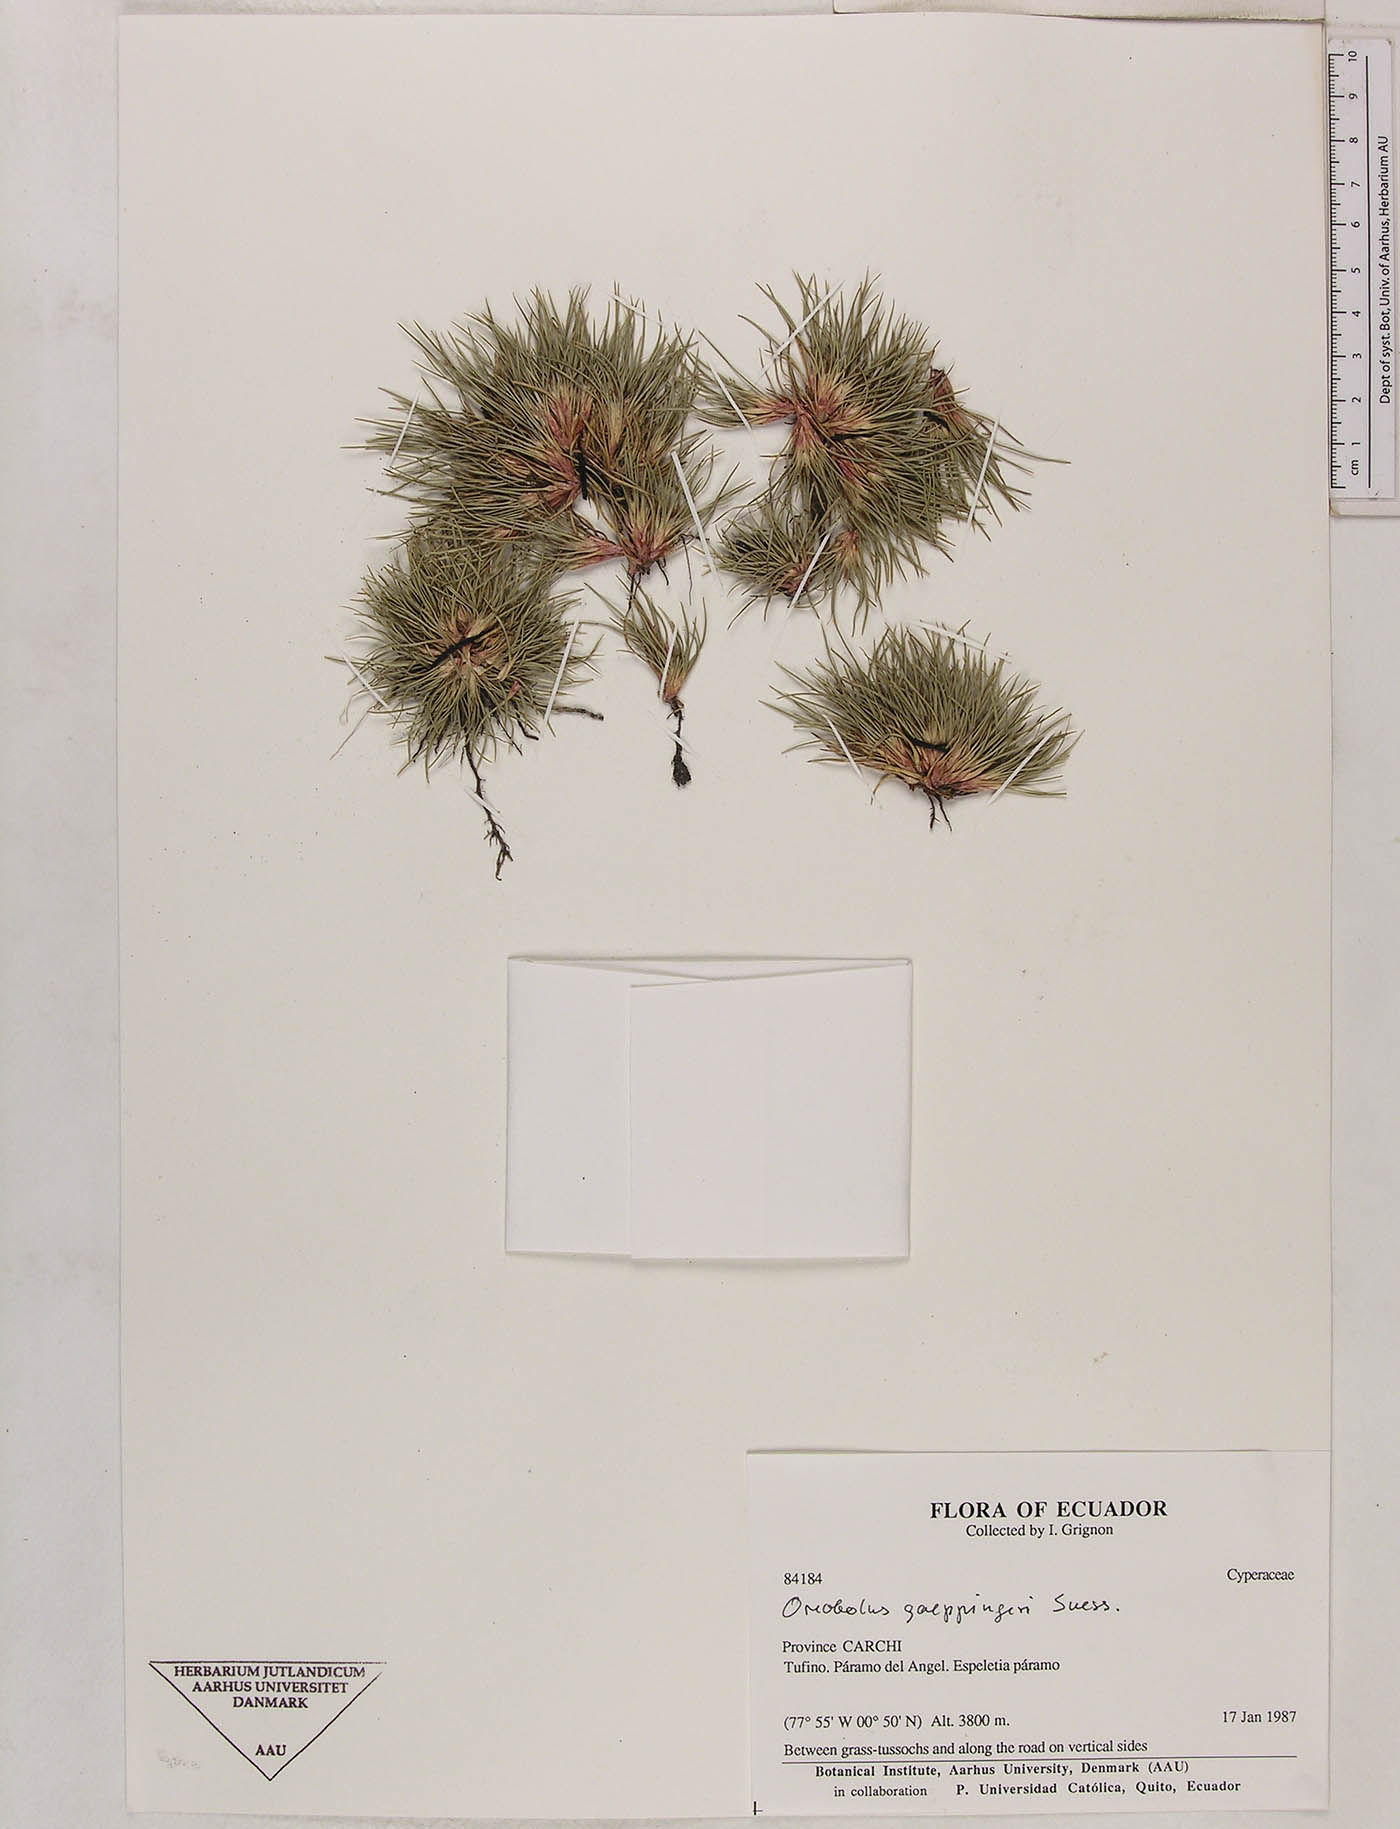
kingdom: Plantae
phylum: Tracheophyta
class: Liliopsida
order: Poales
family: Cyperaceae
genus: Oreobolus
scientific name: Oreobolus goeppingeri
